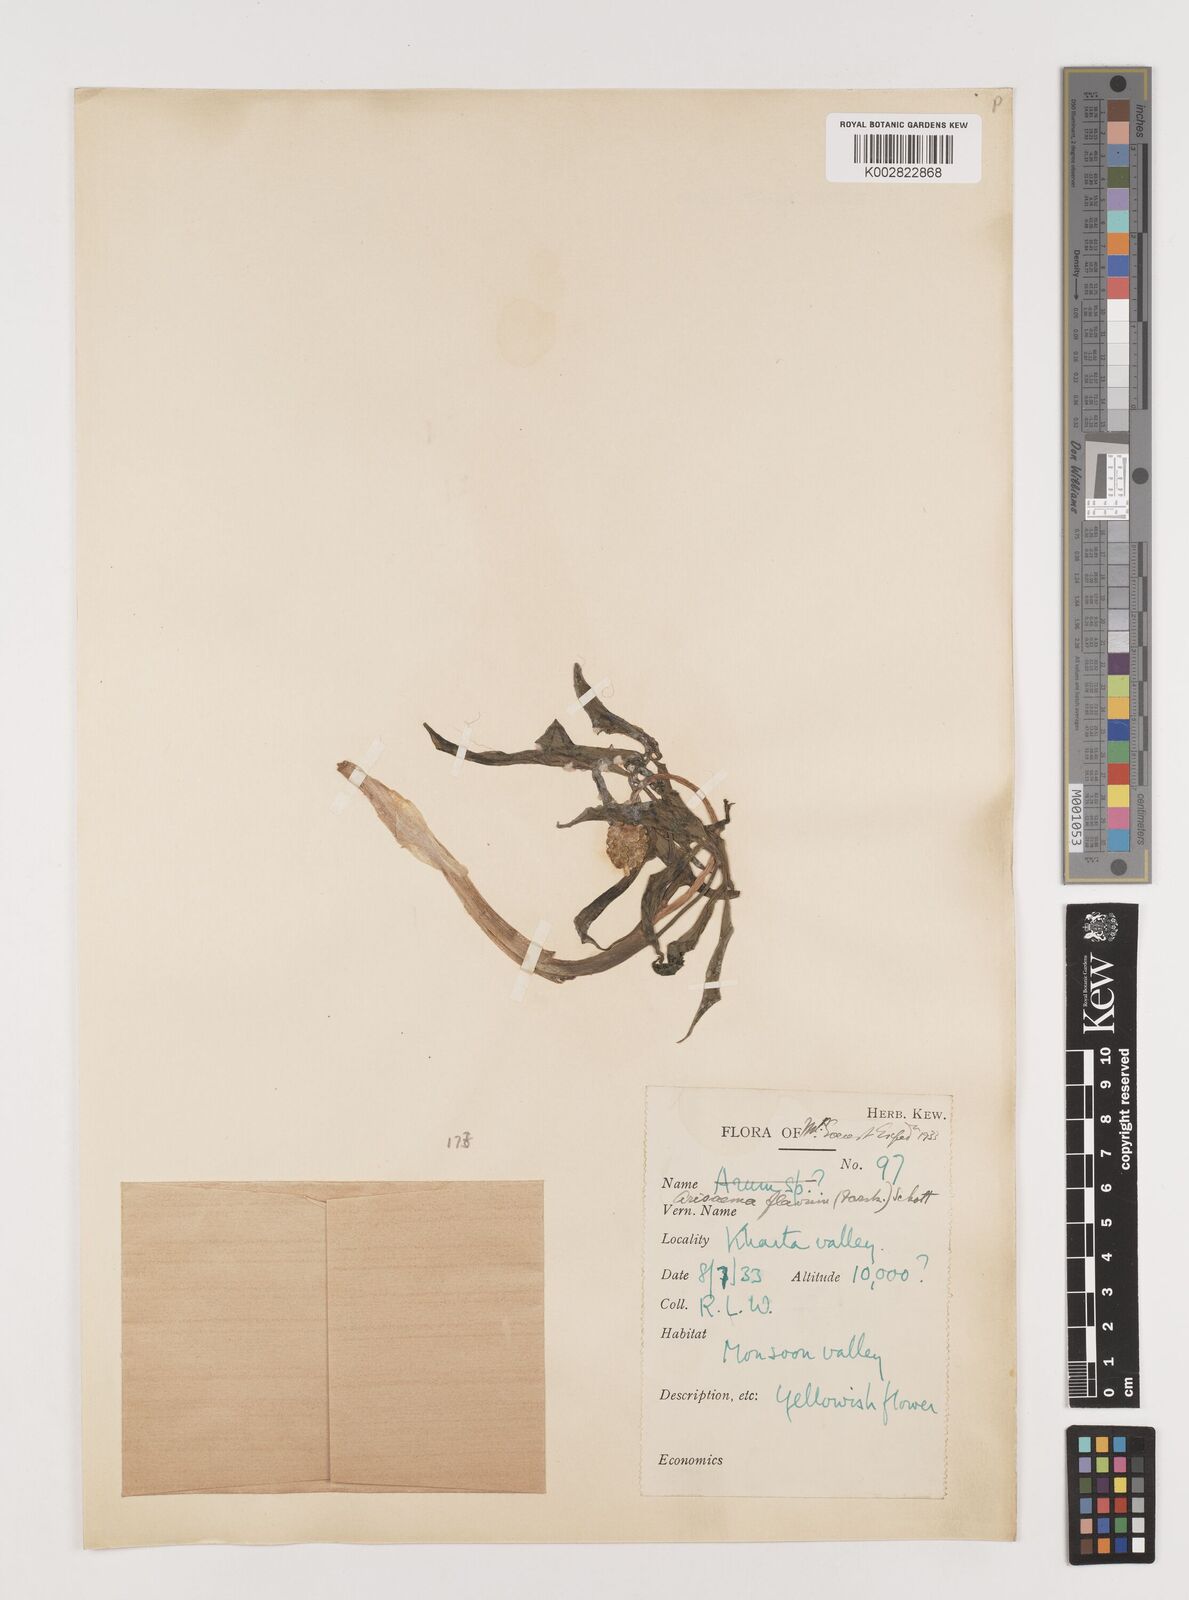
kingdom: Plantae
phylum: Tracheophyta
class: Liliopsida
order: Alismatales
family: Araceae
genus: Arisaema
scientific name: Arisaema flavum
